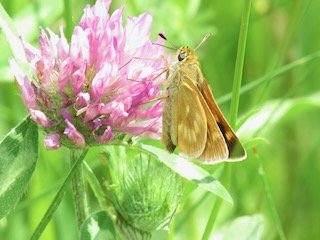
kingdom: Animalia
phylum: Arthropoda
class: Insecta
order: Lepidoptera
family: Hesperiidae
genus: Polites
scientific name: Polites
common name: Long Dash Skipper
